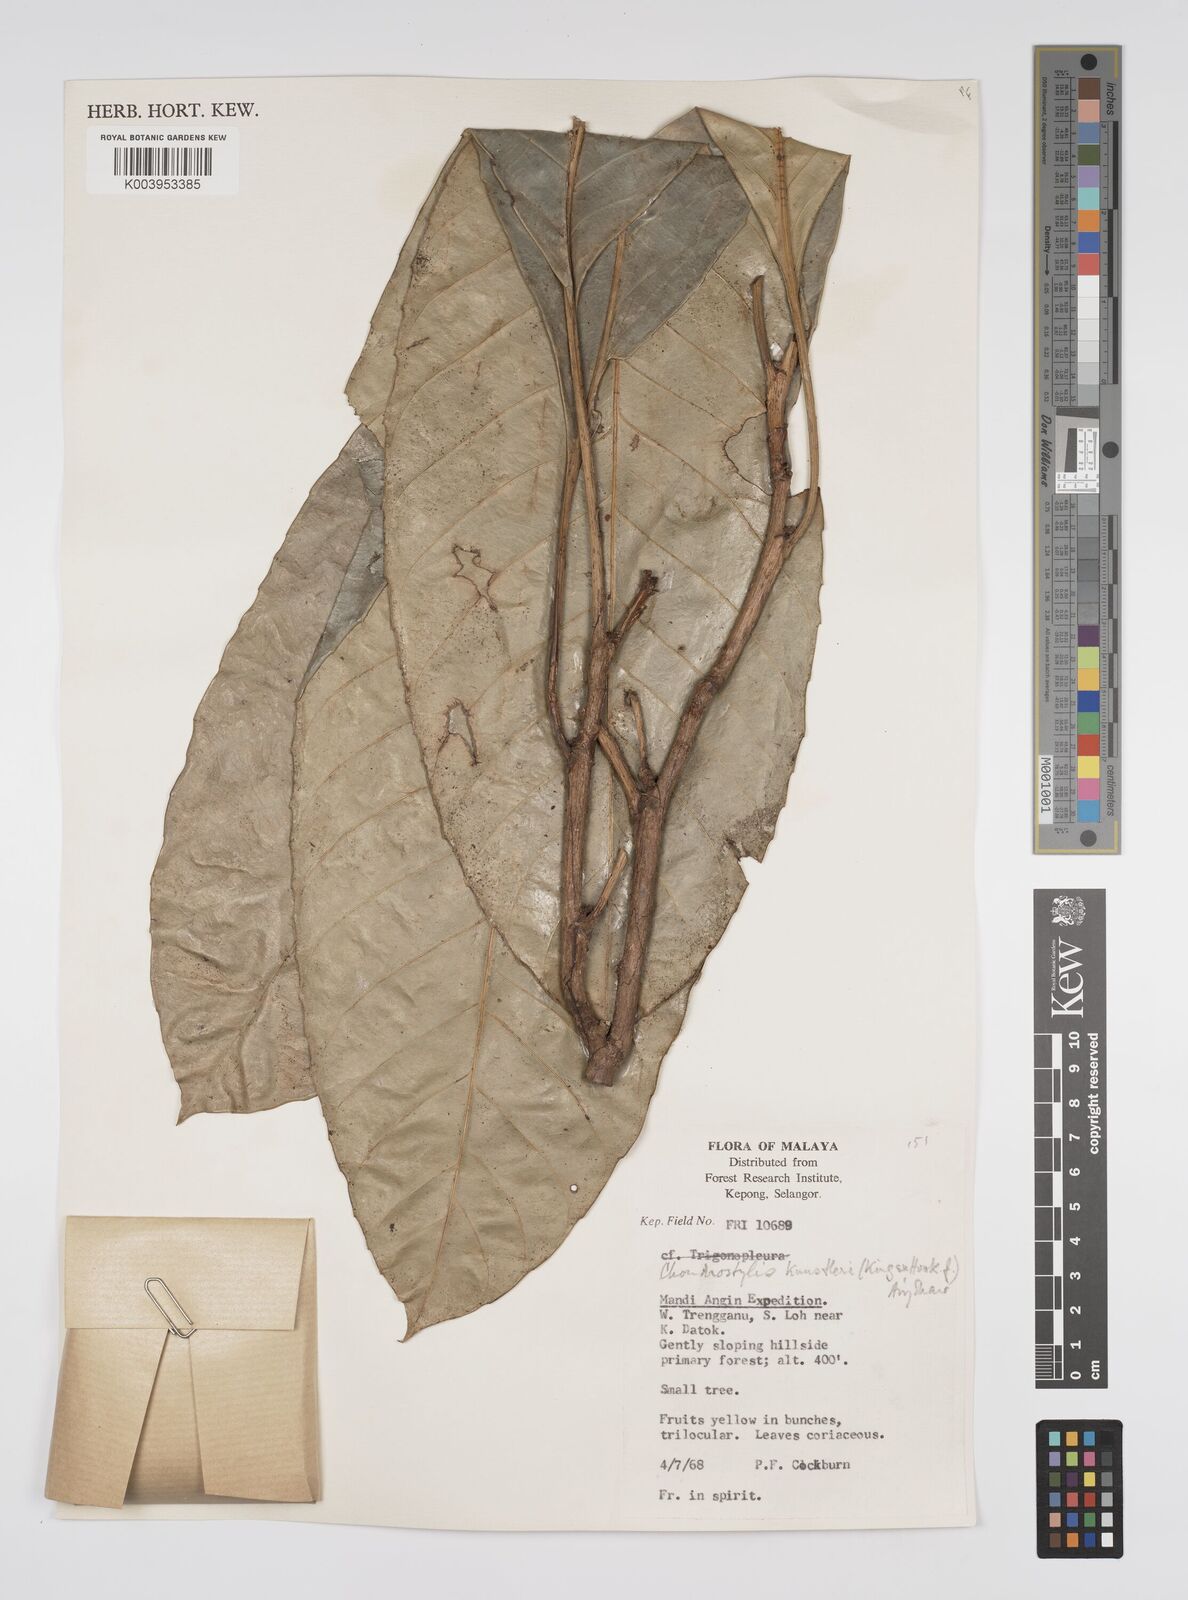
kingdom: Plantae
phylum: Tracheophyta
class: Magnoliopsida
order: Malpighiales
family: Euphorbiaceae
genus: Chondrostylis
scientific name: Chondrostylis kunstleri
